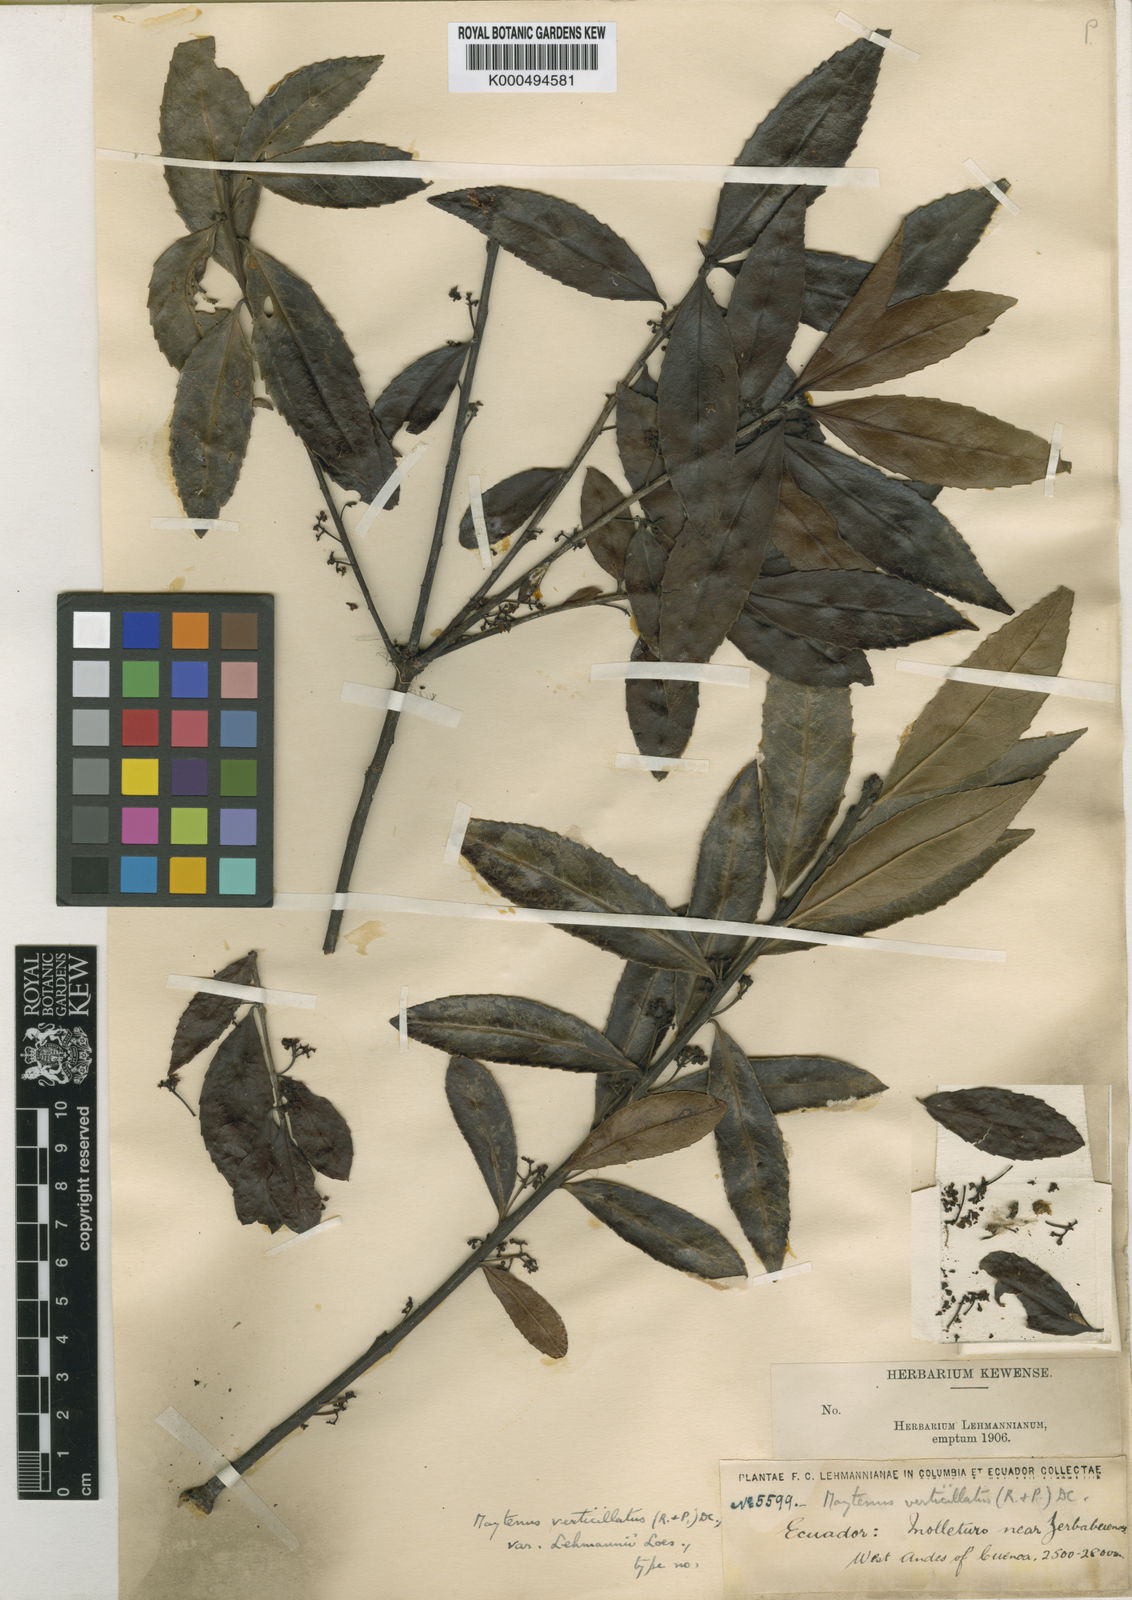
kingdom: Plantae
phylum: Tracheophyta
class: Magnoliopsida
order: Celastrales
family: Celastraceae
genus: Maytenus
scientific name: Maytenus verticillata
